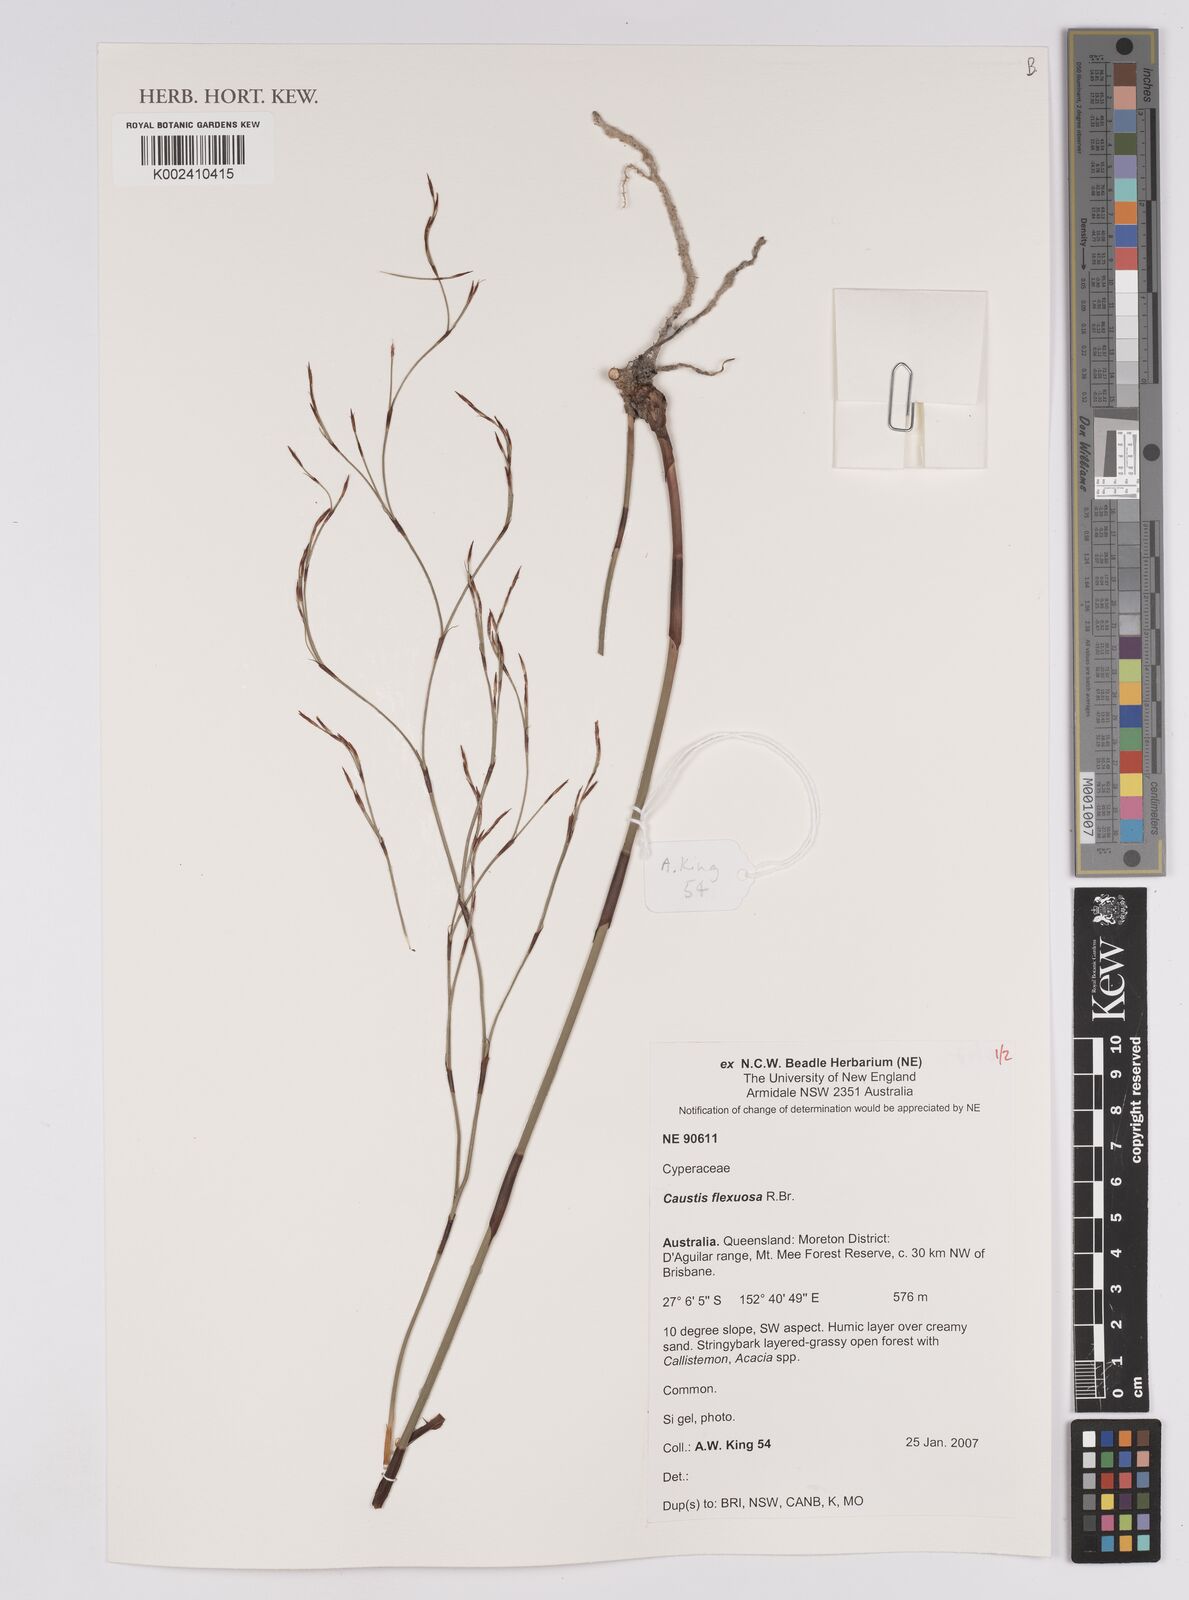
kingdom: Plantae
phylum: Tracheophyta
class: Liliopsida
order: Poales
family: Cyperaceae
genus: Caustis
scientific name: Caustis flexuosa
